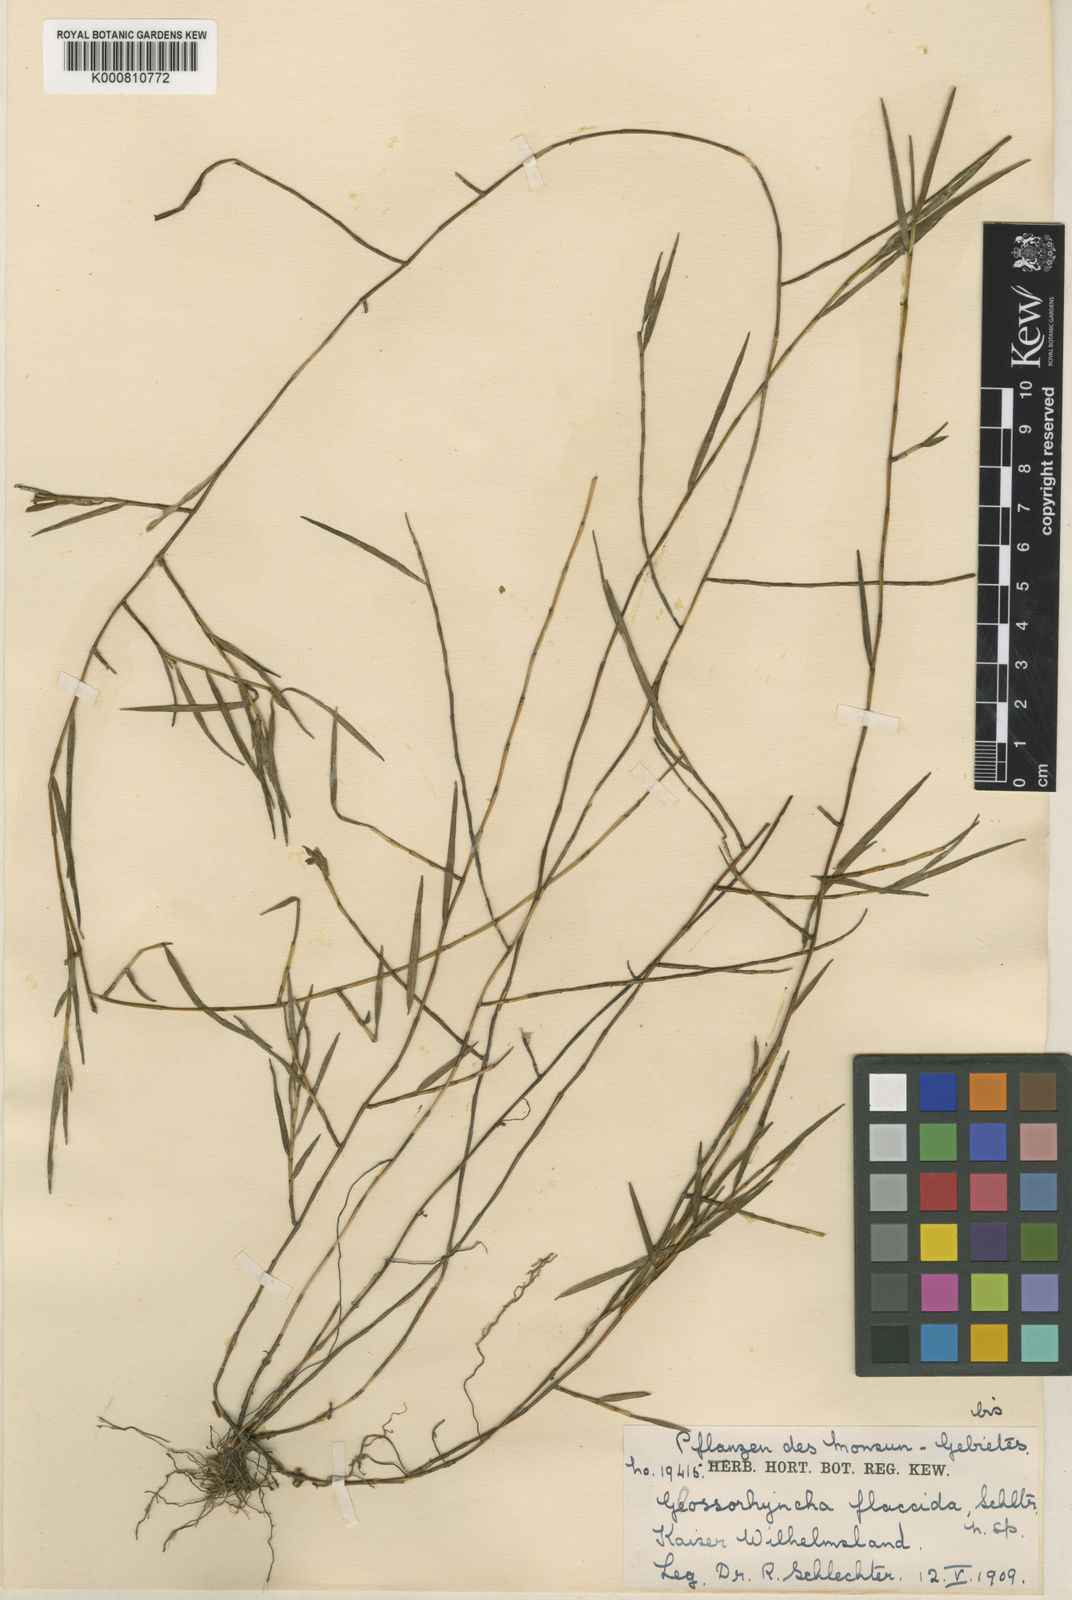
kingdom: Plantae
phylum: Tracheophyta
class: Liliopsida
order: Asparagales
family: Orchidaceae
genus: Glomera
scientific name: Glomera flaccida
